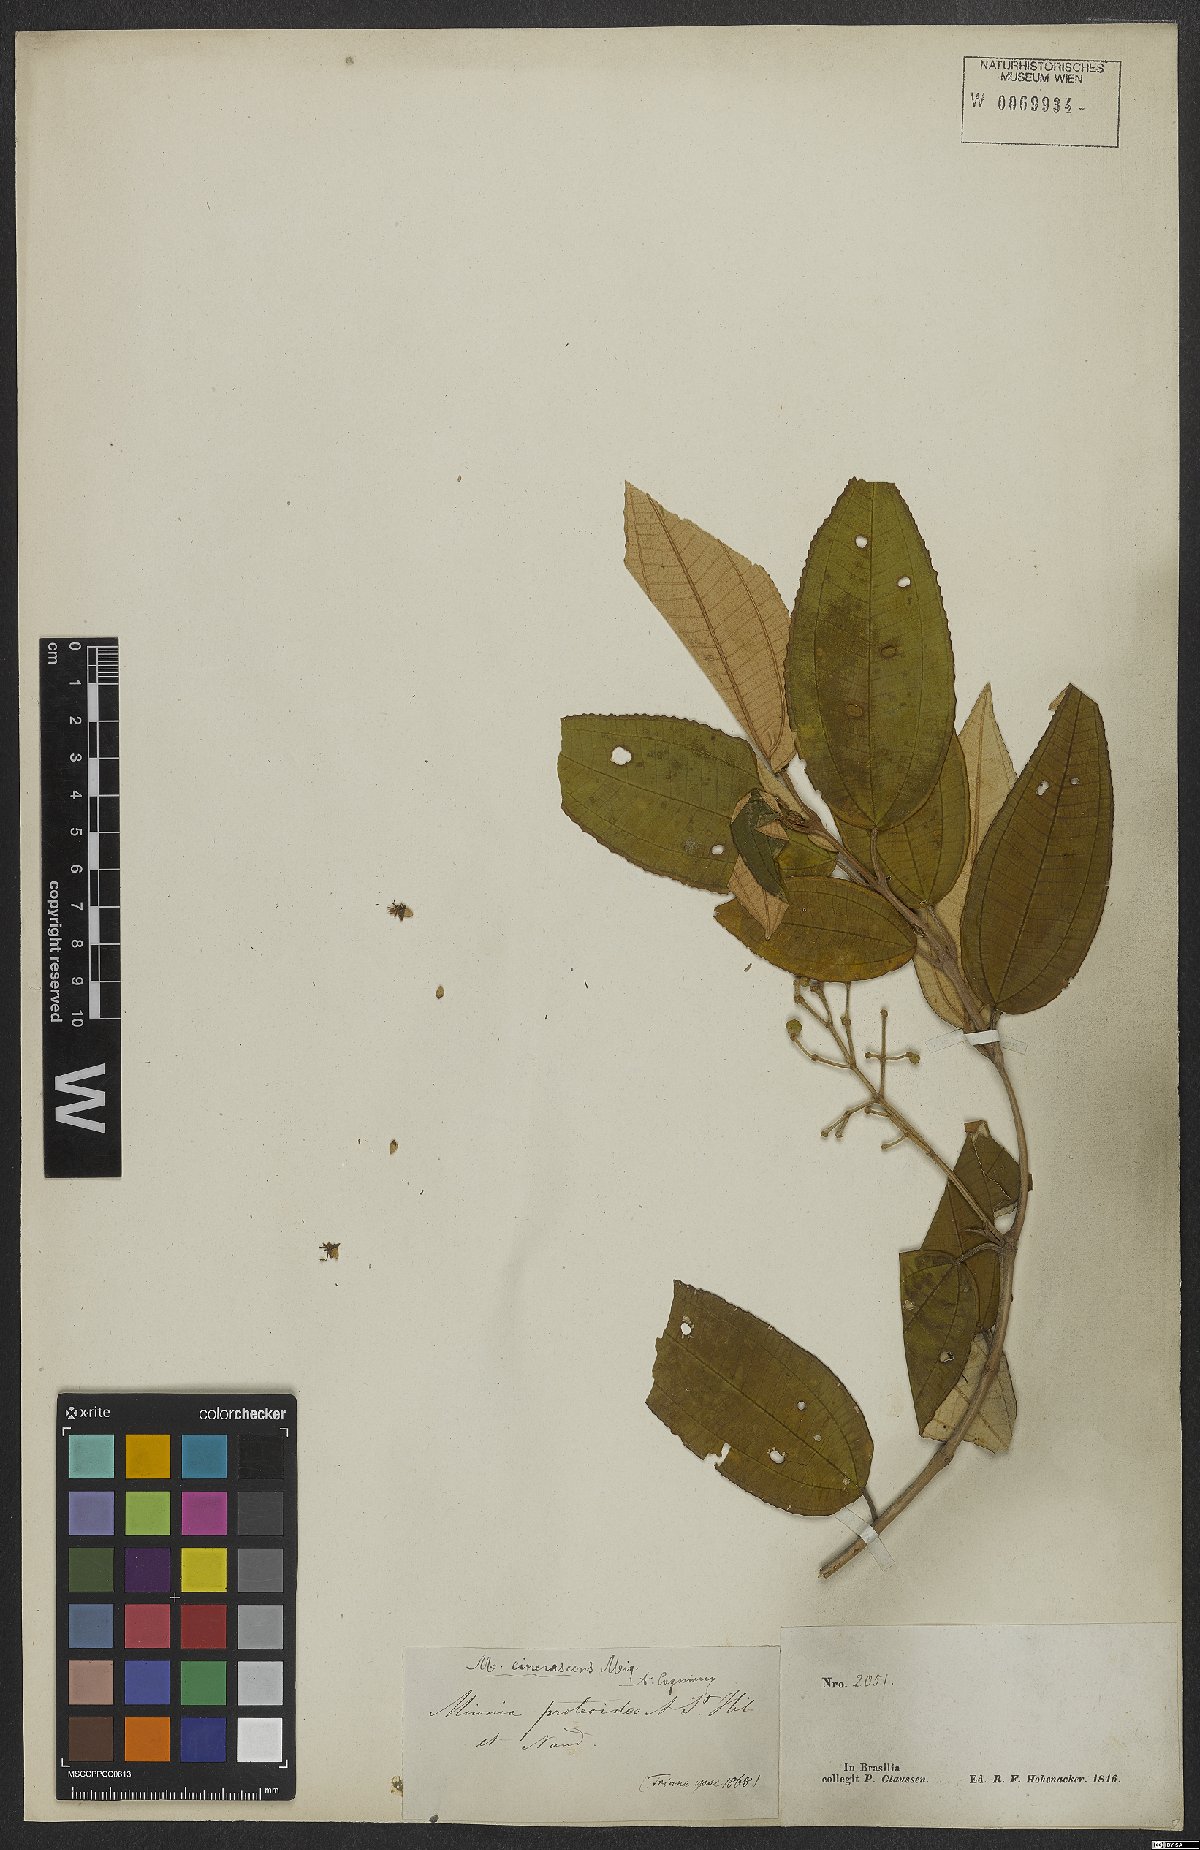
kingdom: Plantae
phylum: Tracheophyta
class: Magnoliopsida
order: Myrtales
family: Melastomataceae
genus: Miconia
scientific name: Miconia cinerascens
